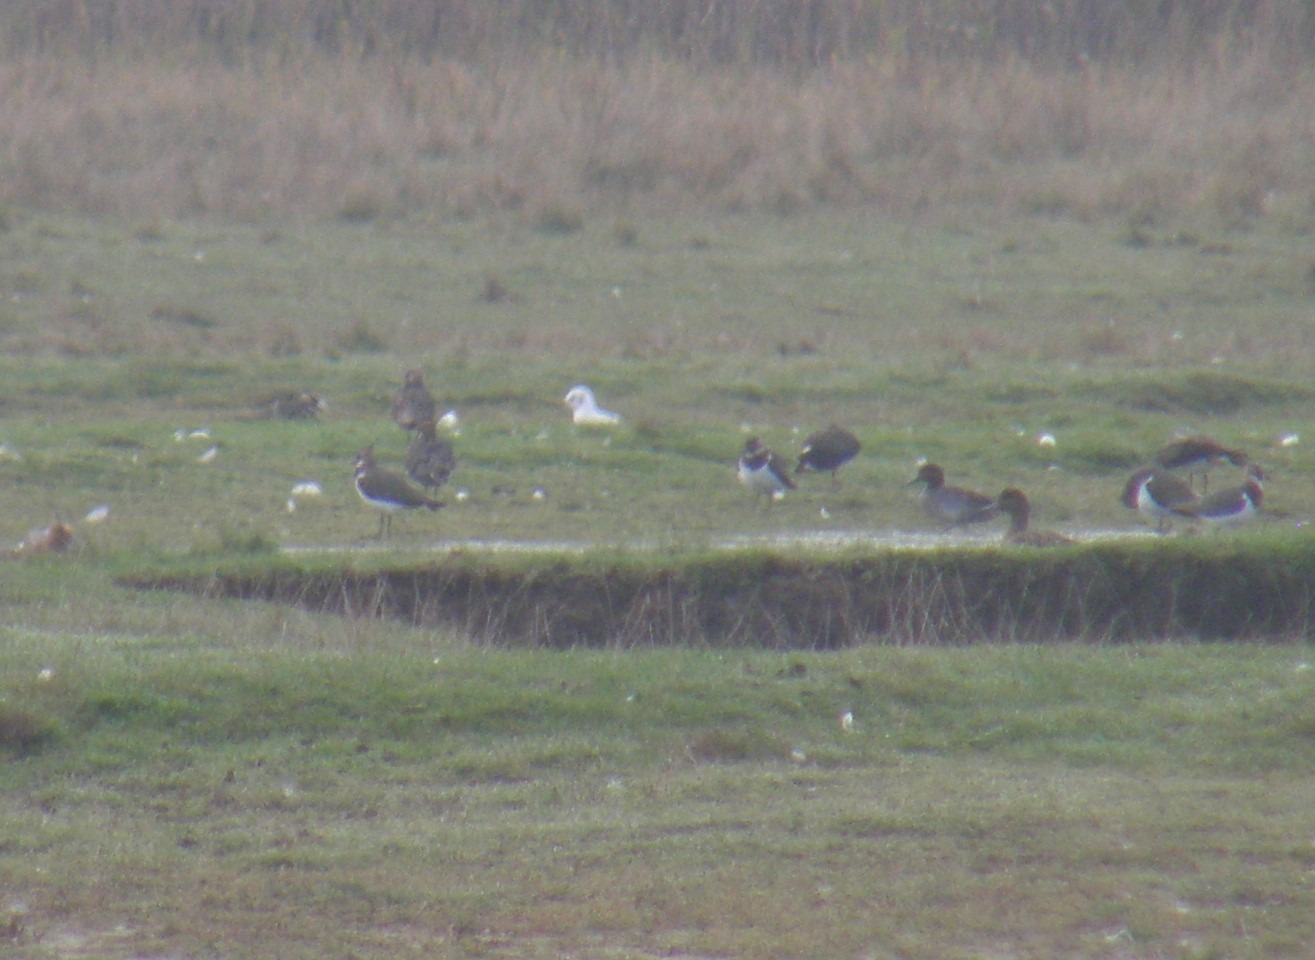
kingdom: Animalia
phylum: Chordata
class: Aves
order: Charadriiformes
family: Charadriidae
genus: Vanellus
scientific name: Vanellus vanellus
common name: Vibe
